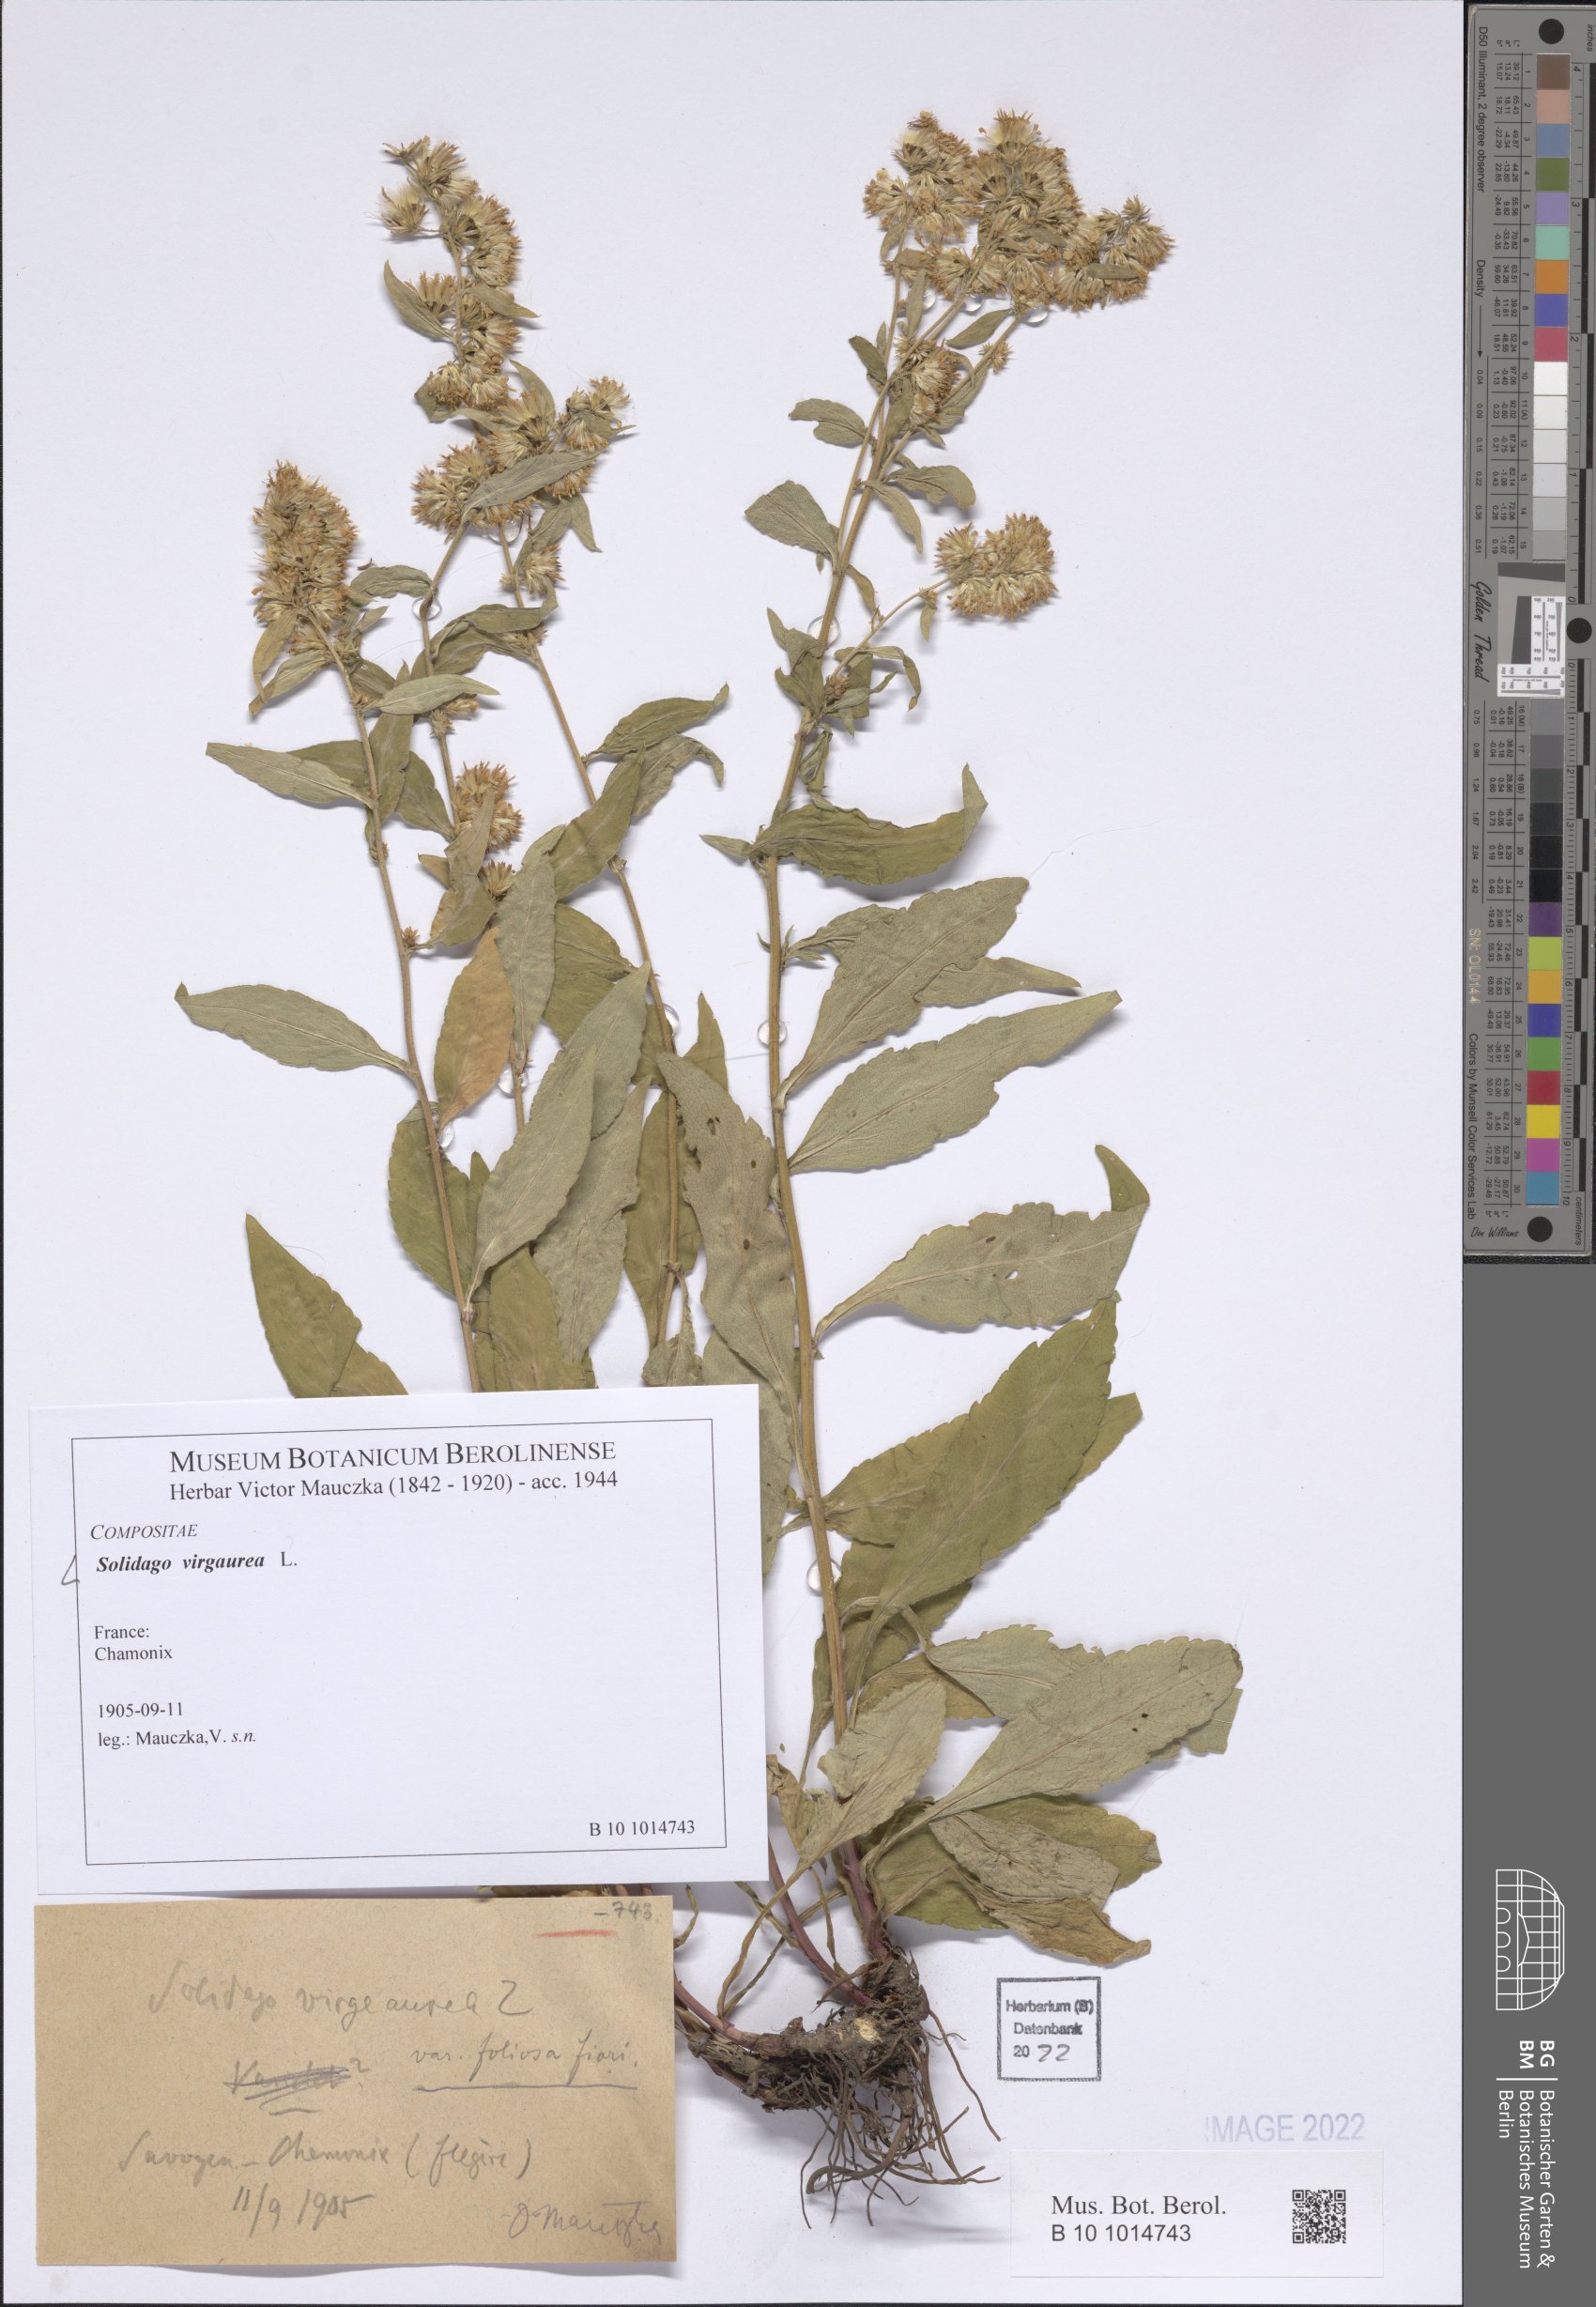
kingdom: Plantae
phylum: Tracheophyta
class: Magnoliopsida
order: Asterales
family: Asteraceae
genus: Solidago
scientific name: Solidago virgaurea
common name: Goldenrod
